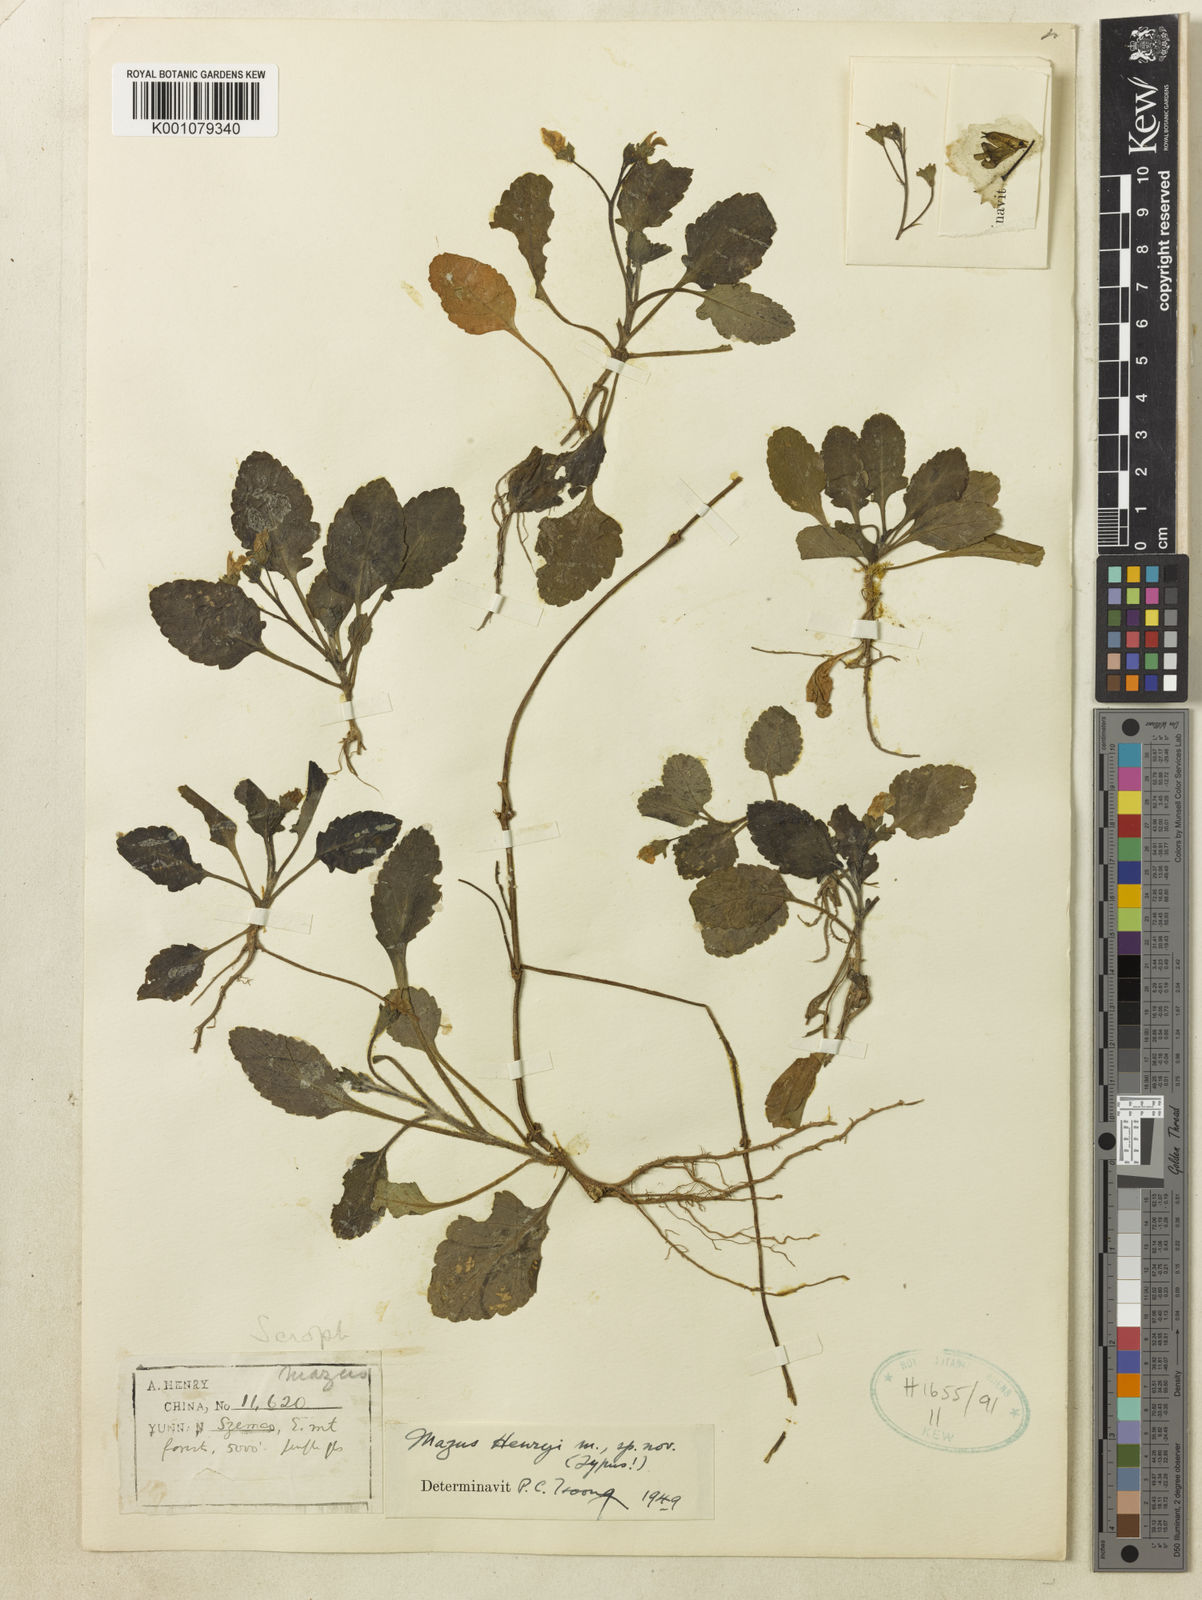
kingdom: Plantae
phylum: Tracheophyta
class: Magnoliopsida
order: Lamiales
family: Mazaceae
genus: Mazus
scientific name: Mazus henryi
